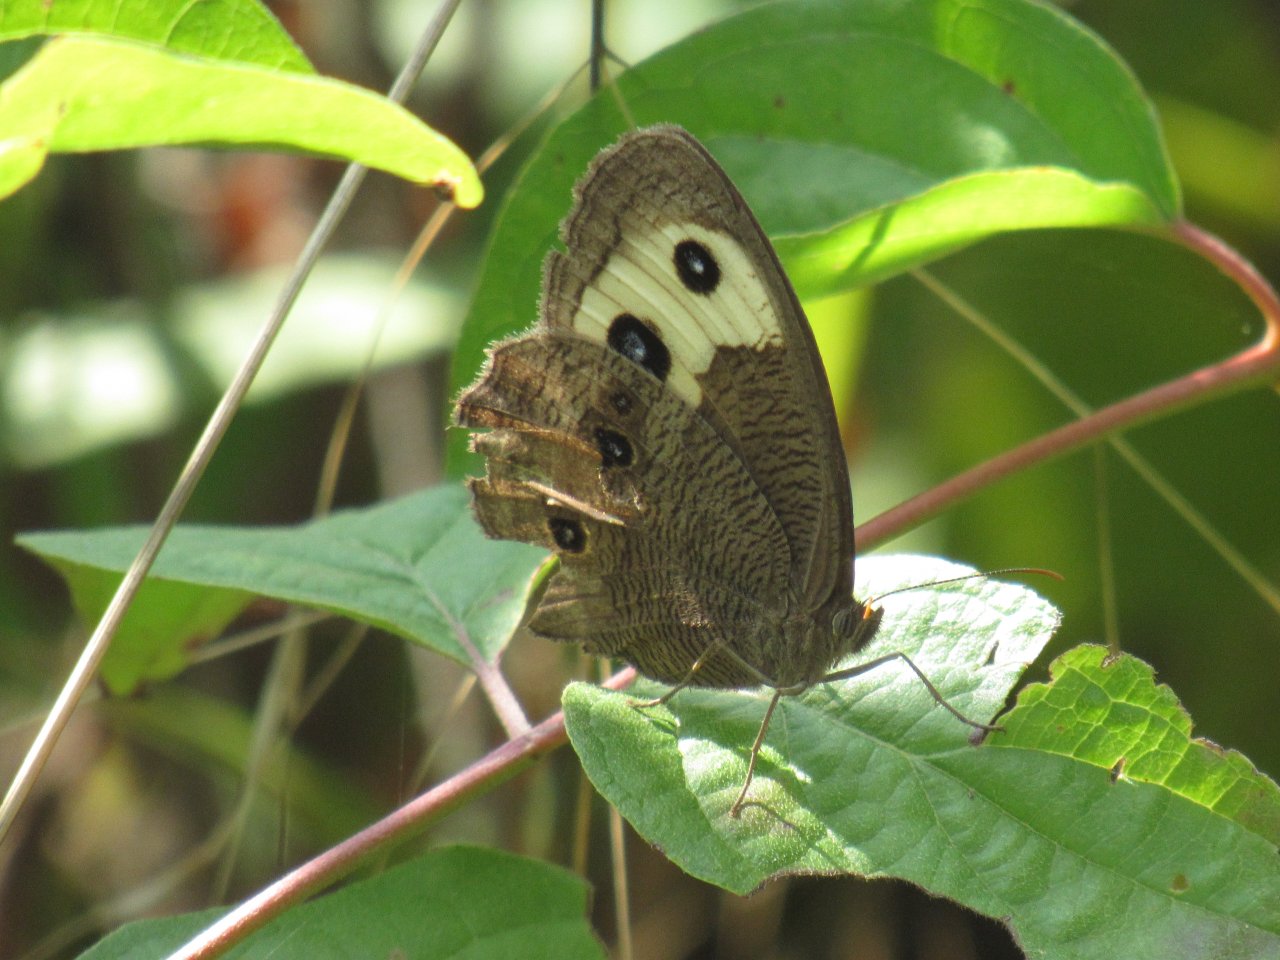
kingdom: Animalia
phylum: Arthropoda
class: Insecta
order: Lepidoptera
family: Nymphalidae
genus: Cercyonis
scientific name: Cercyonis pegala
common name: Common Wood-Nymph
